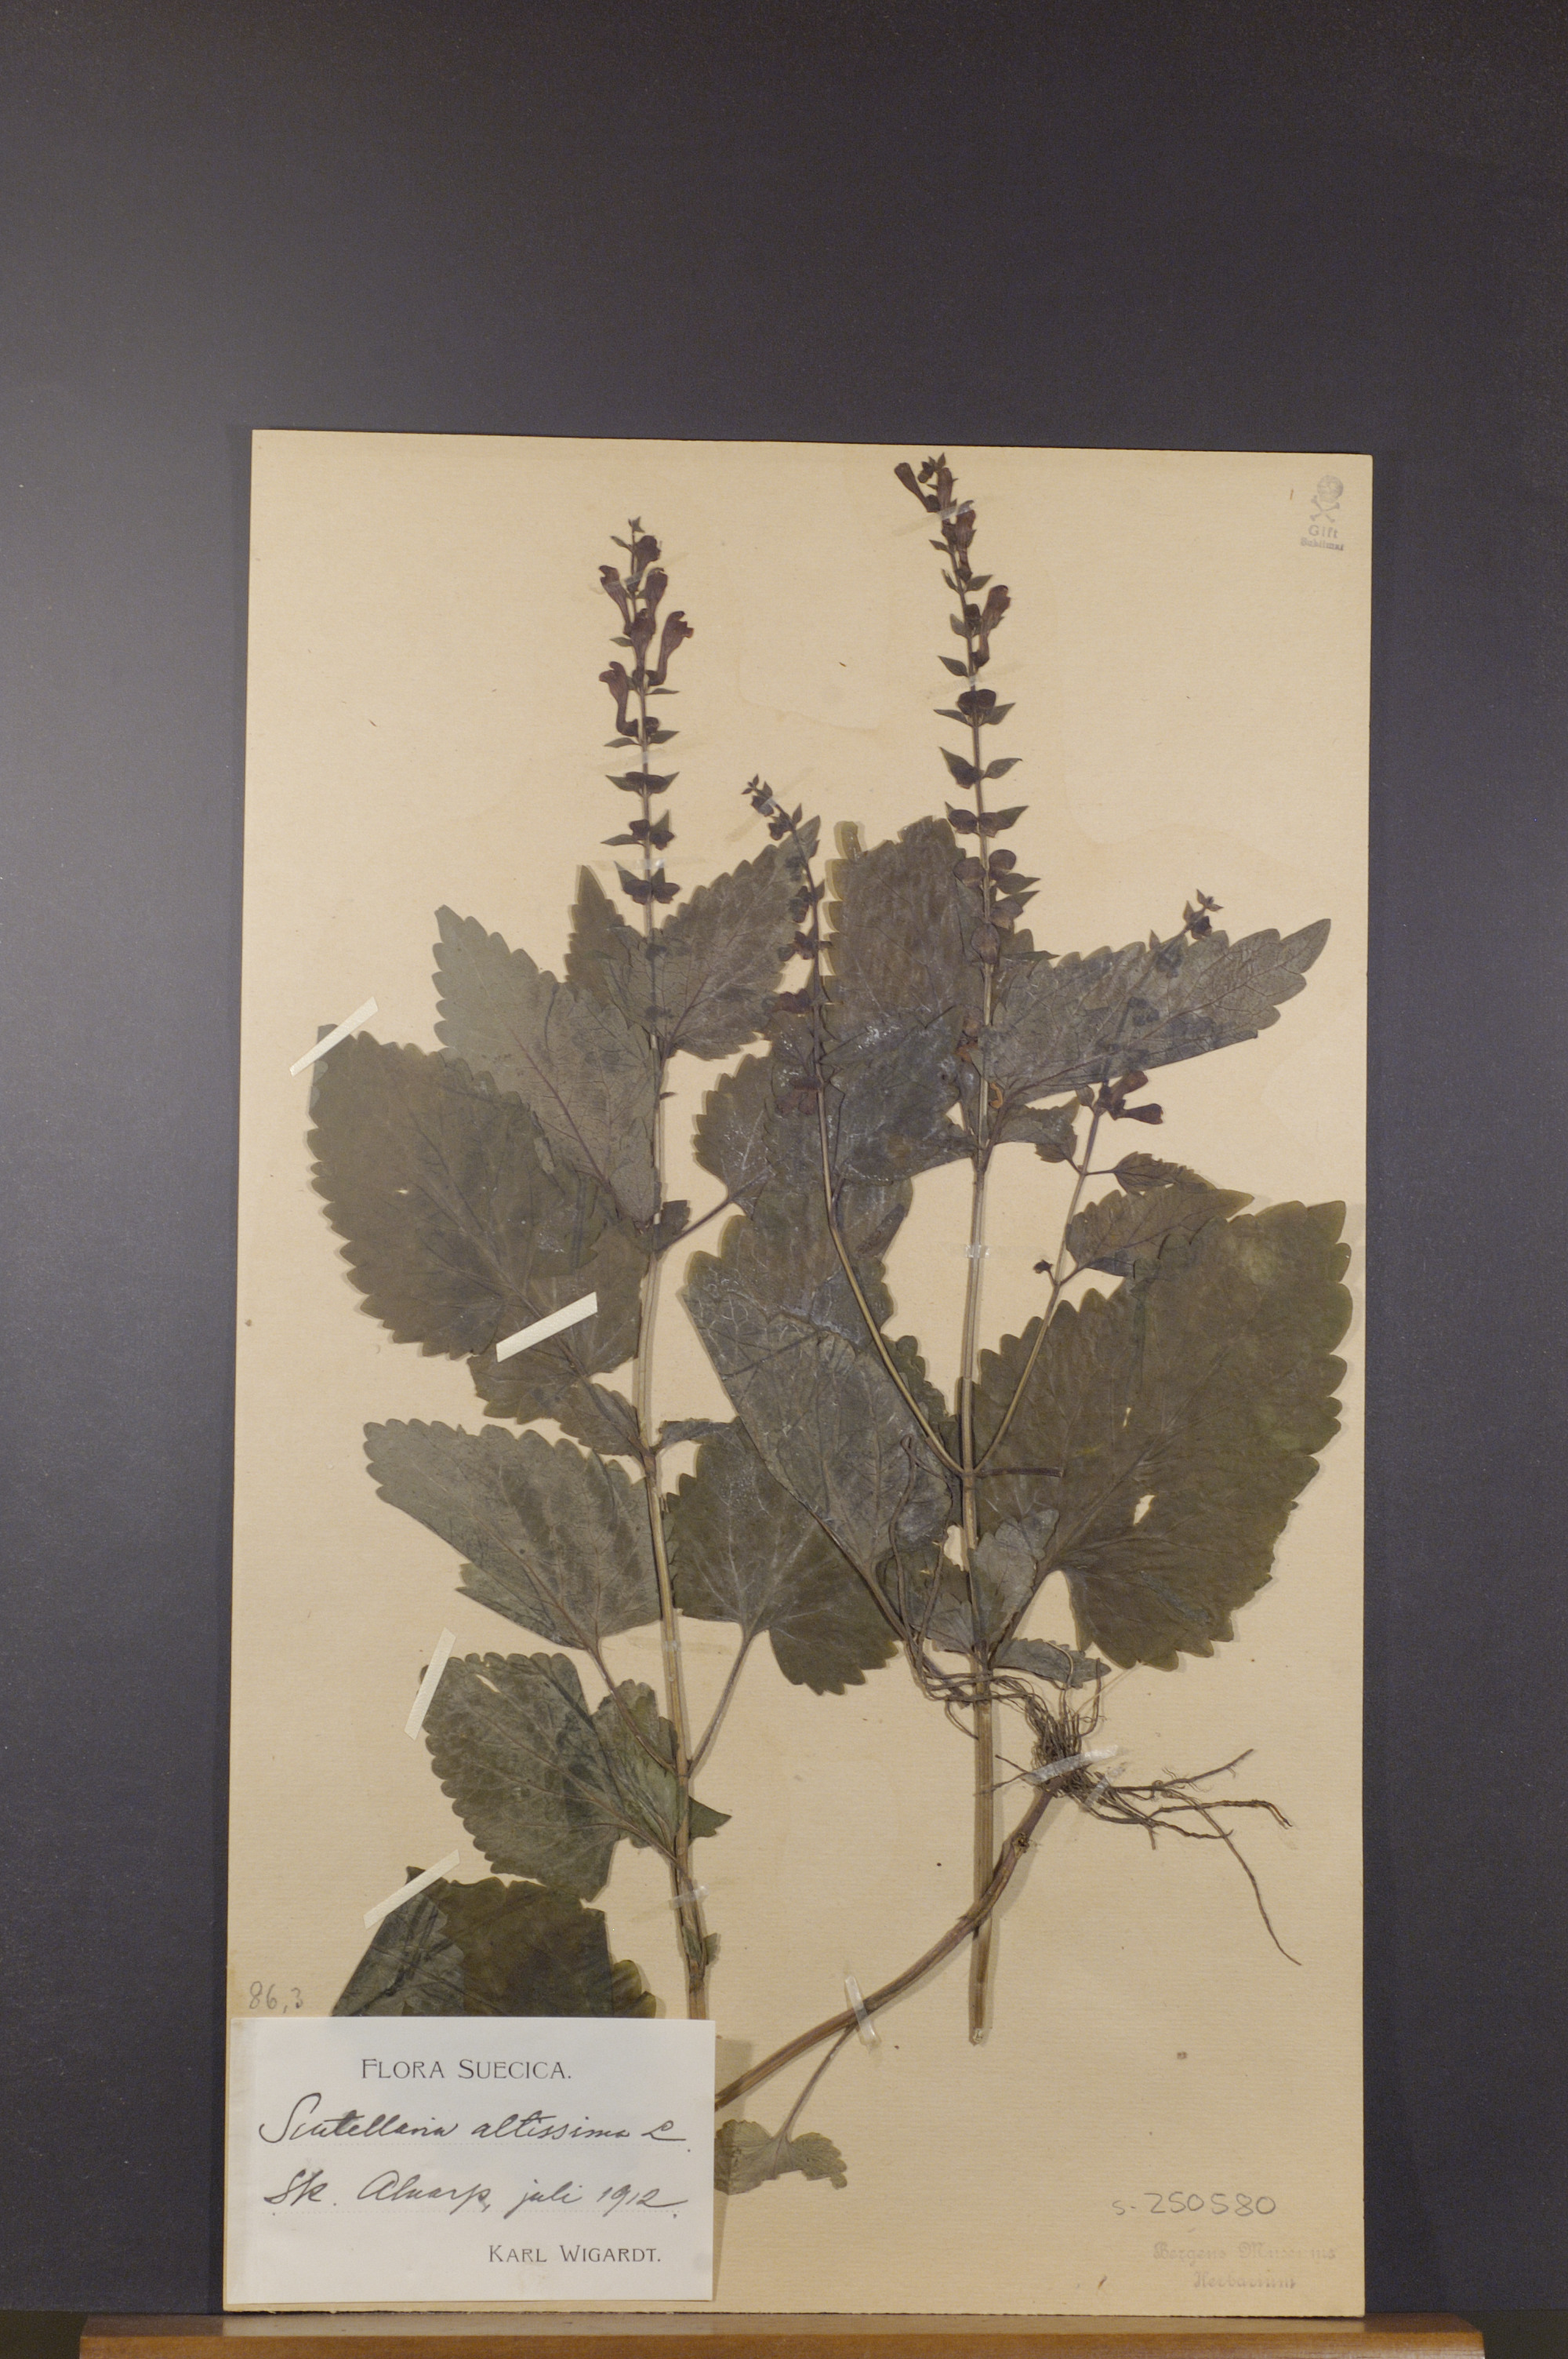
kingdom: Plantae
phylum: Tracheophyta
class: Magnoliopsida
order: Lamiales
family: Lamiaceae
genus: Scutellaria
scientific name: Scutellaria altissima
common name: Somerset skullcap
